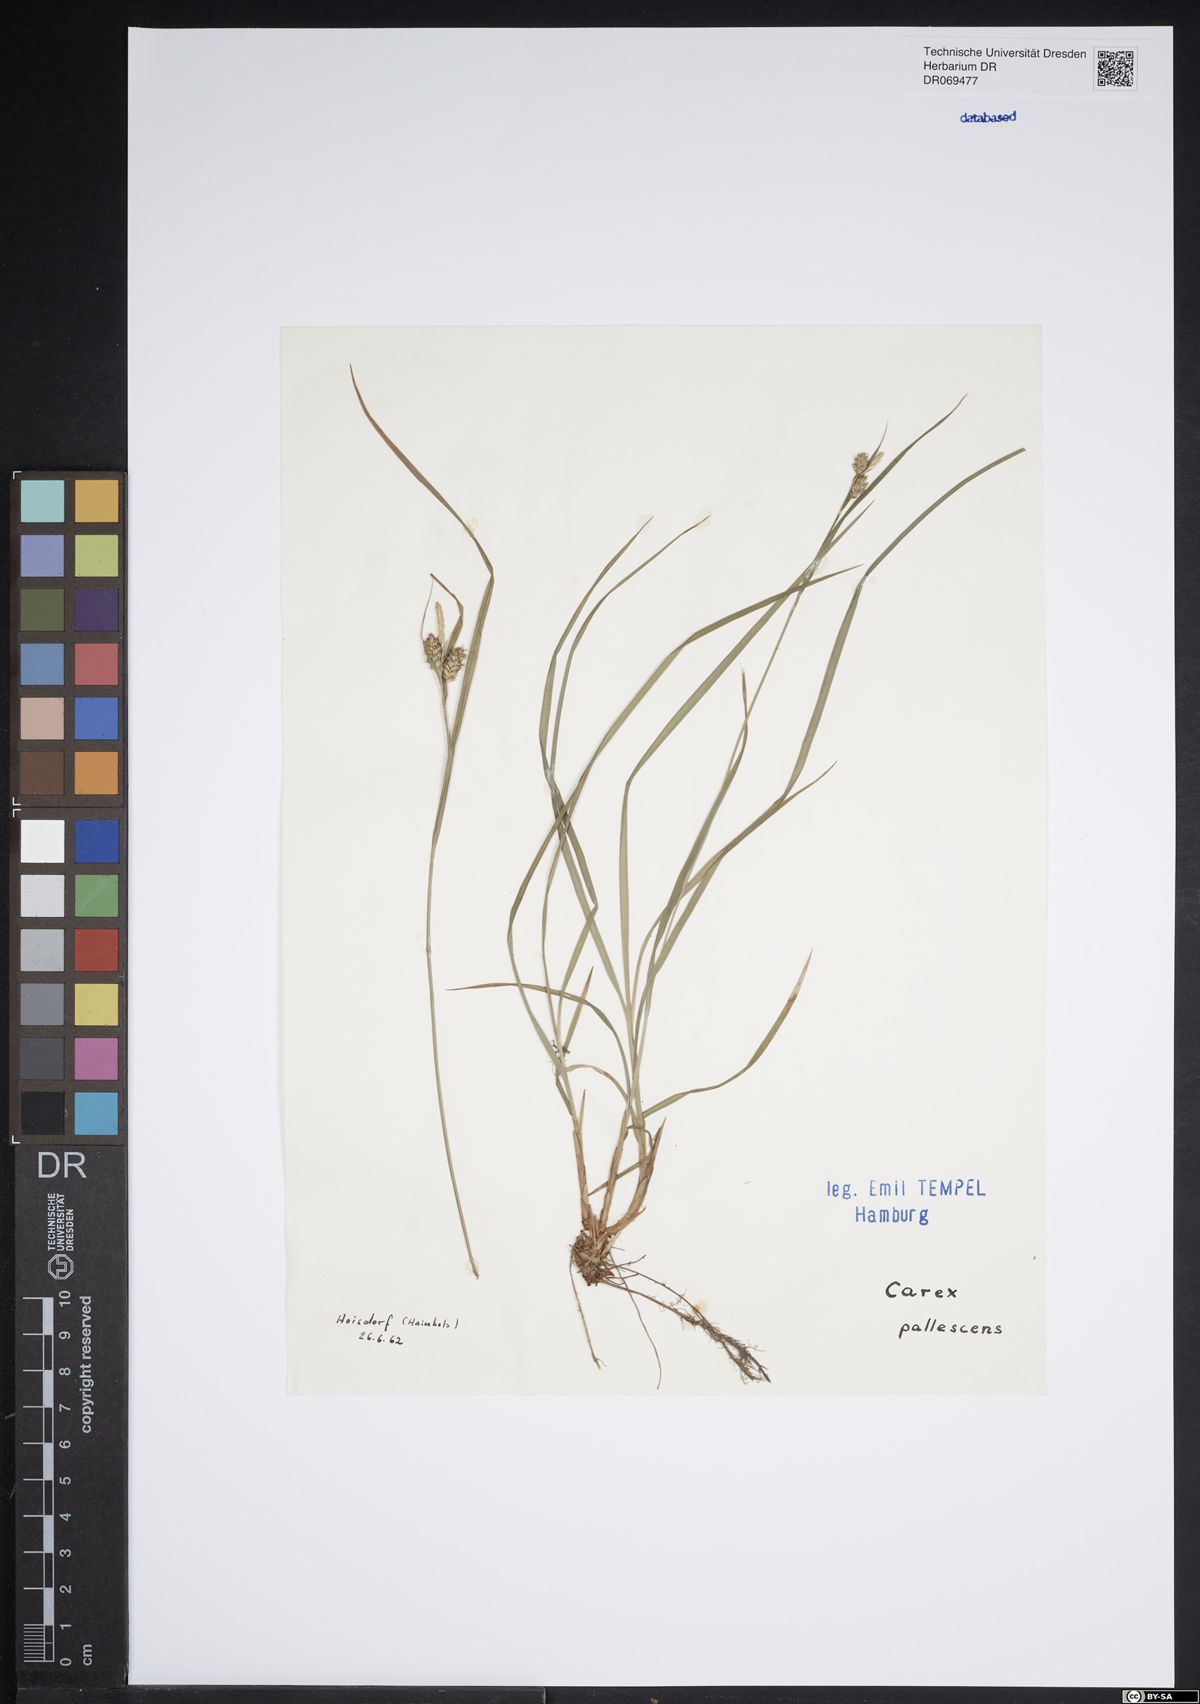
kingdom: Plantae
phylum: Tracheophyta
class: Liliopsida
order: Poales
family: Cyperaceae
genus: Carex
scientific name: Carex pallescens
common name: Pale sedge
